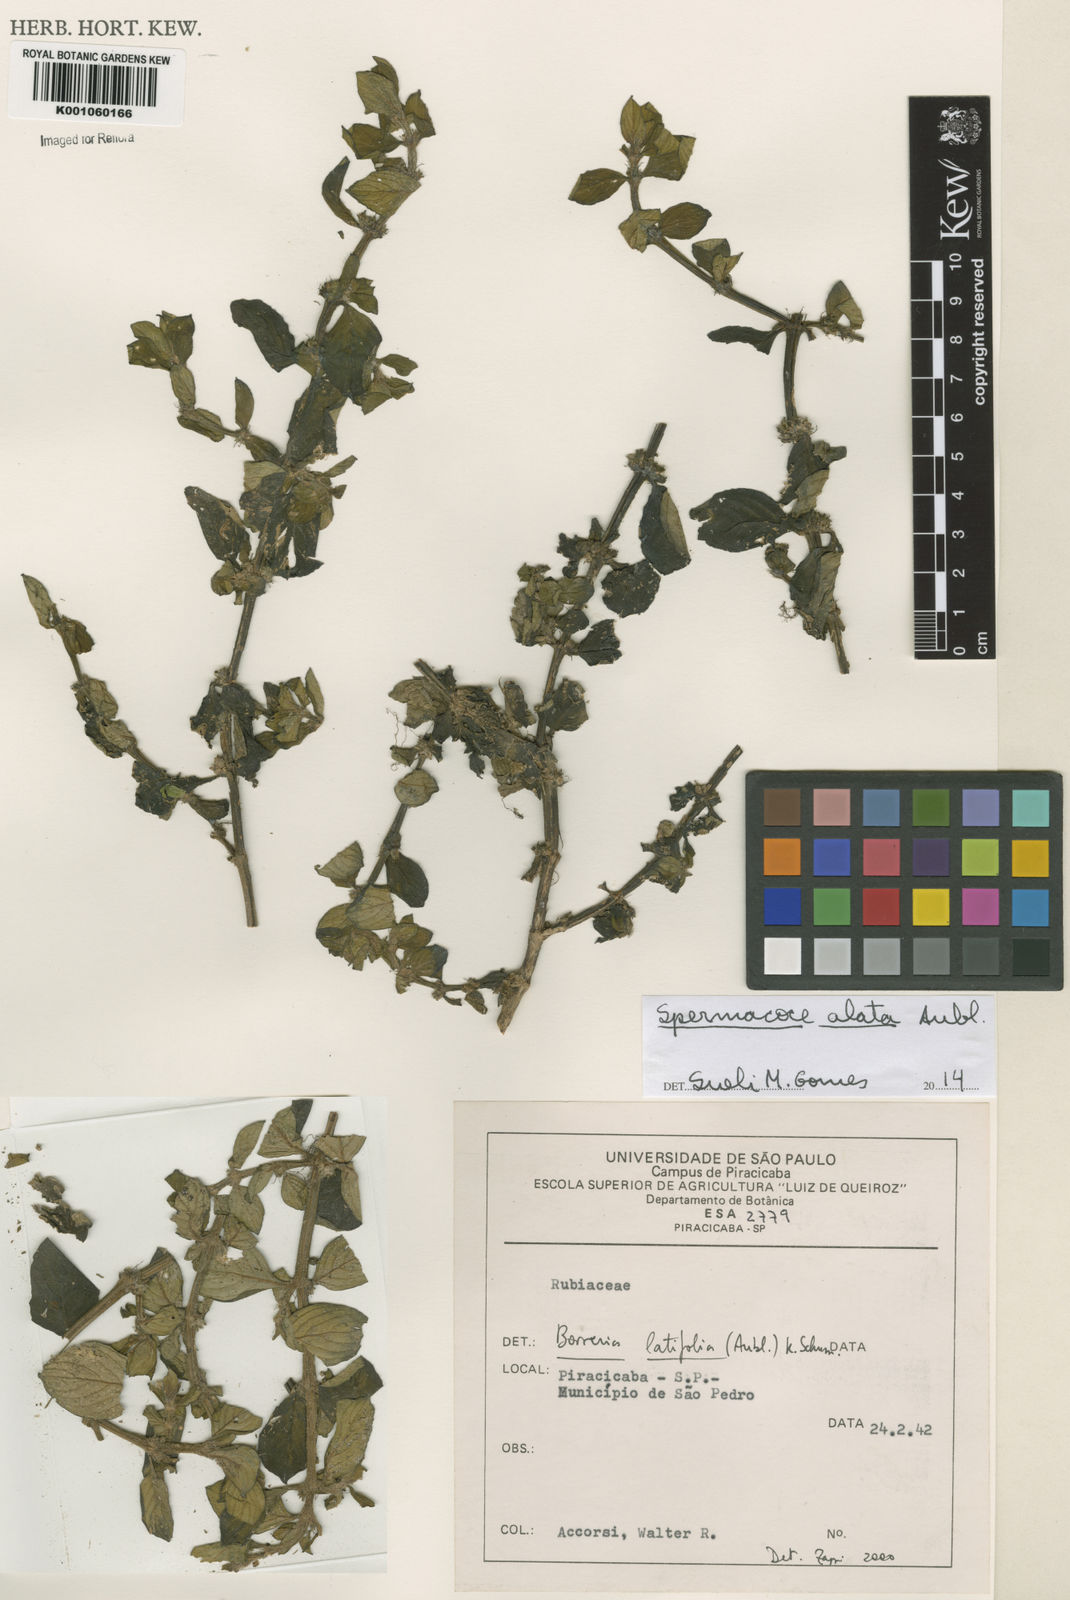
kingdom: Plantae
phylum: Tracheophyta
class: Magnoliopsida
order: Gentianales
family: Rubiaceae
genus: Spermacoce
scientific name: Spermacoce
